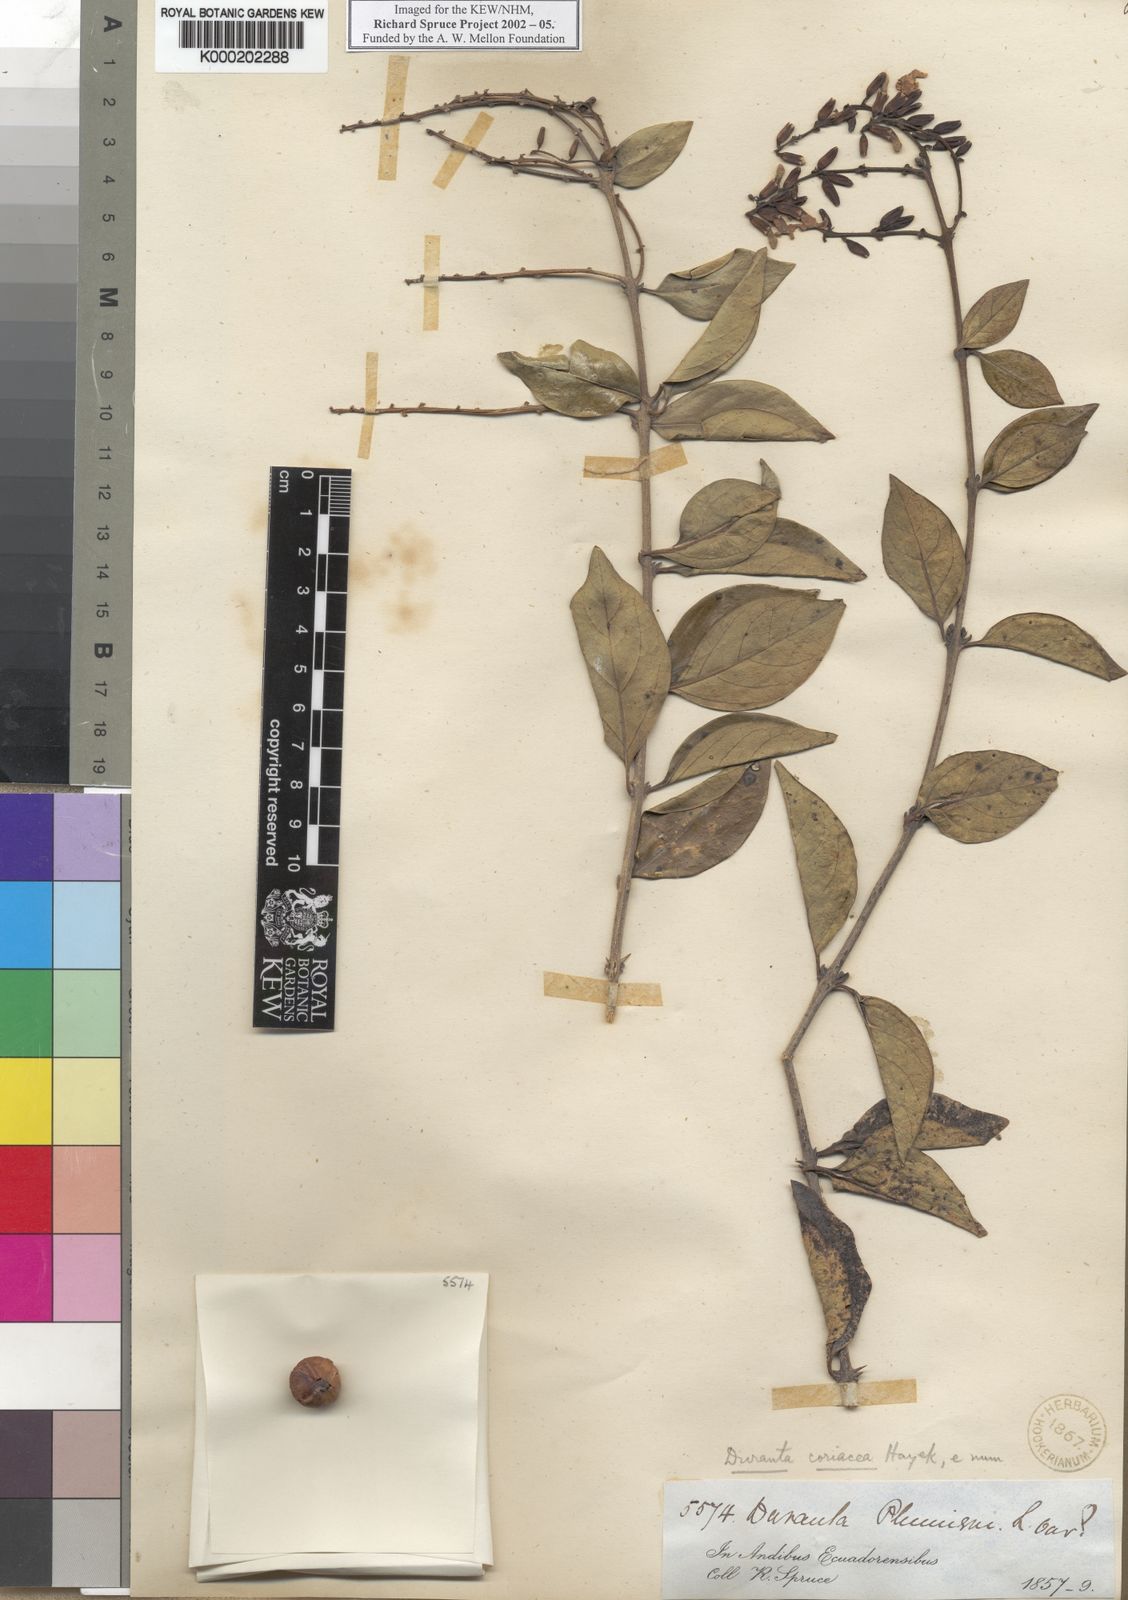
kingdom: Plantae
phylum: Tracheophyta
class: Magnoliopsida
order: Lamiales
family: Verbenaceae
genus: Duranta
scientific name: Duranta coriacea
